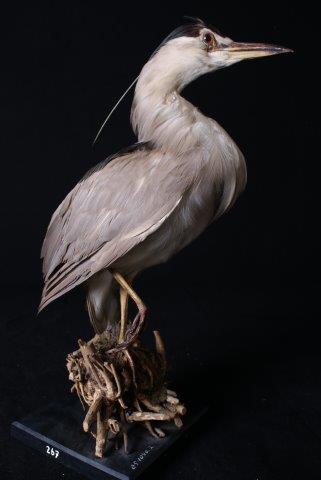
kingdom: Animalia
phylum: Chordata
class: Aves
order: Pelecaniformes
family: Ardeidae
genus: Nycticorax
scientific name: Nycticorax nycticorax
